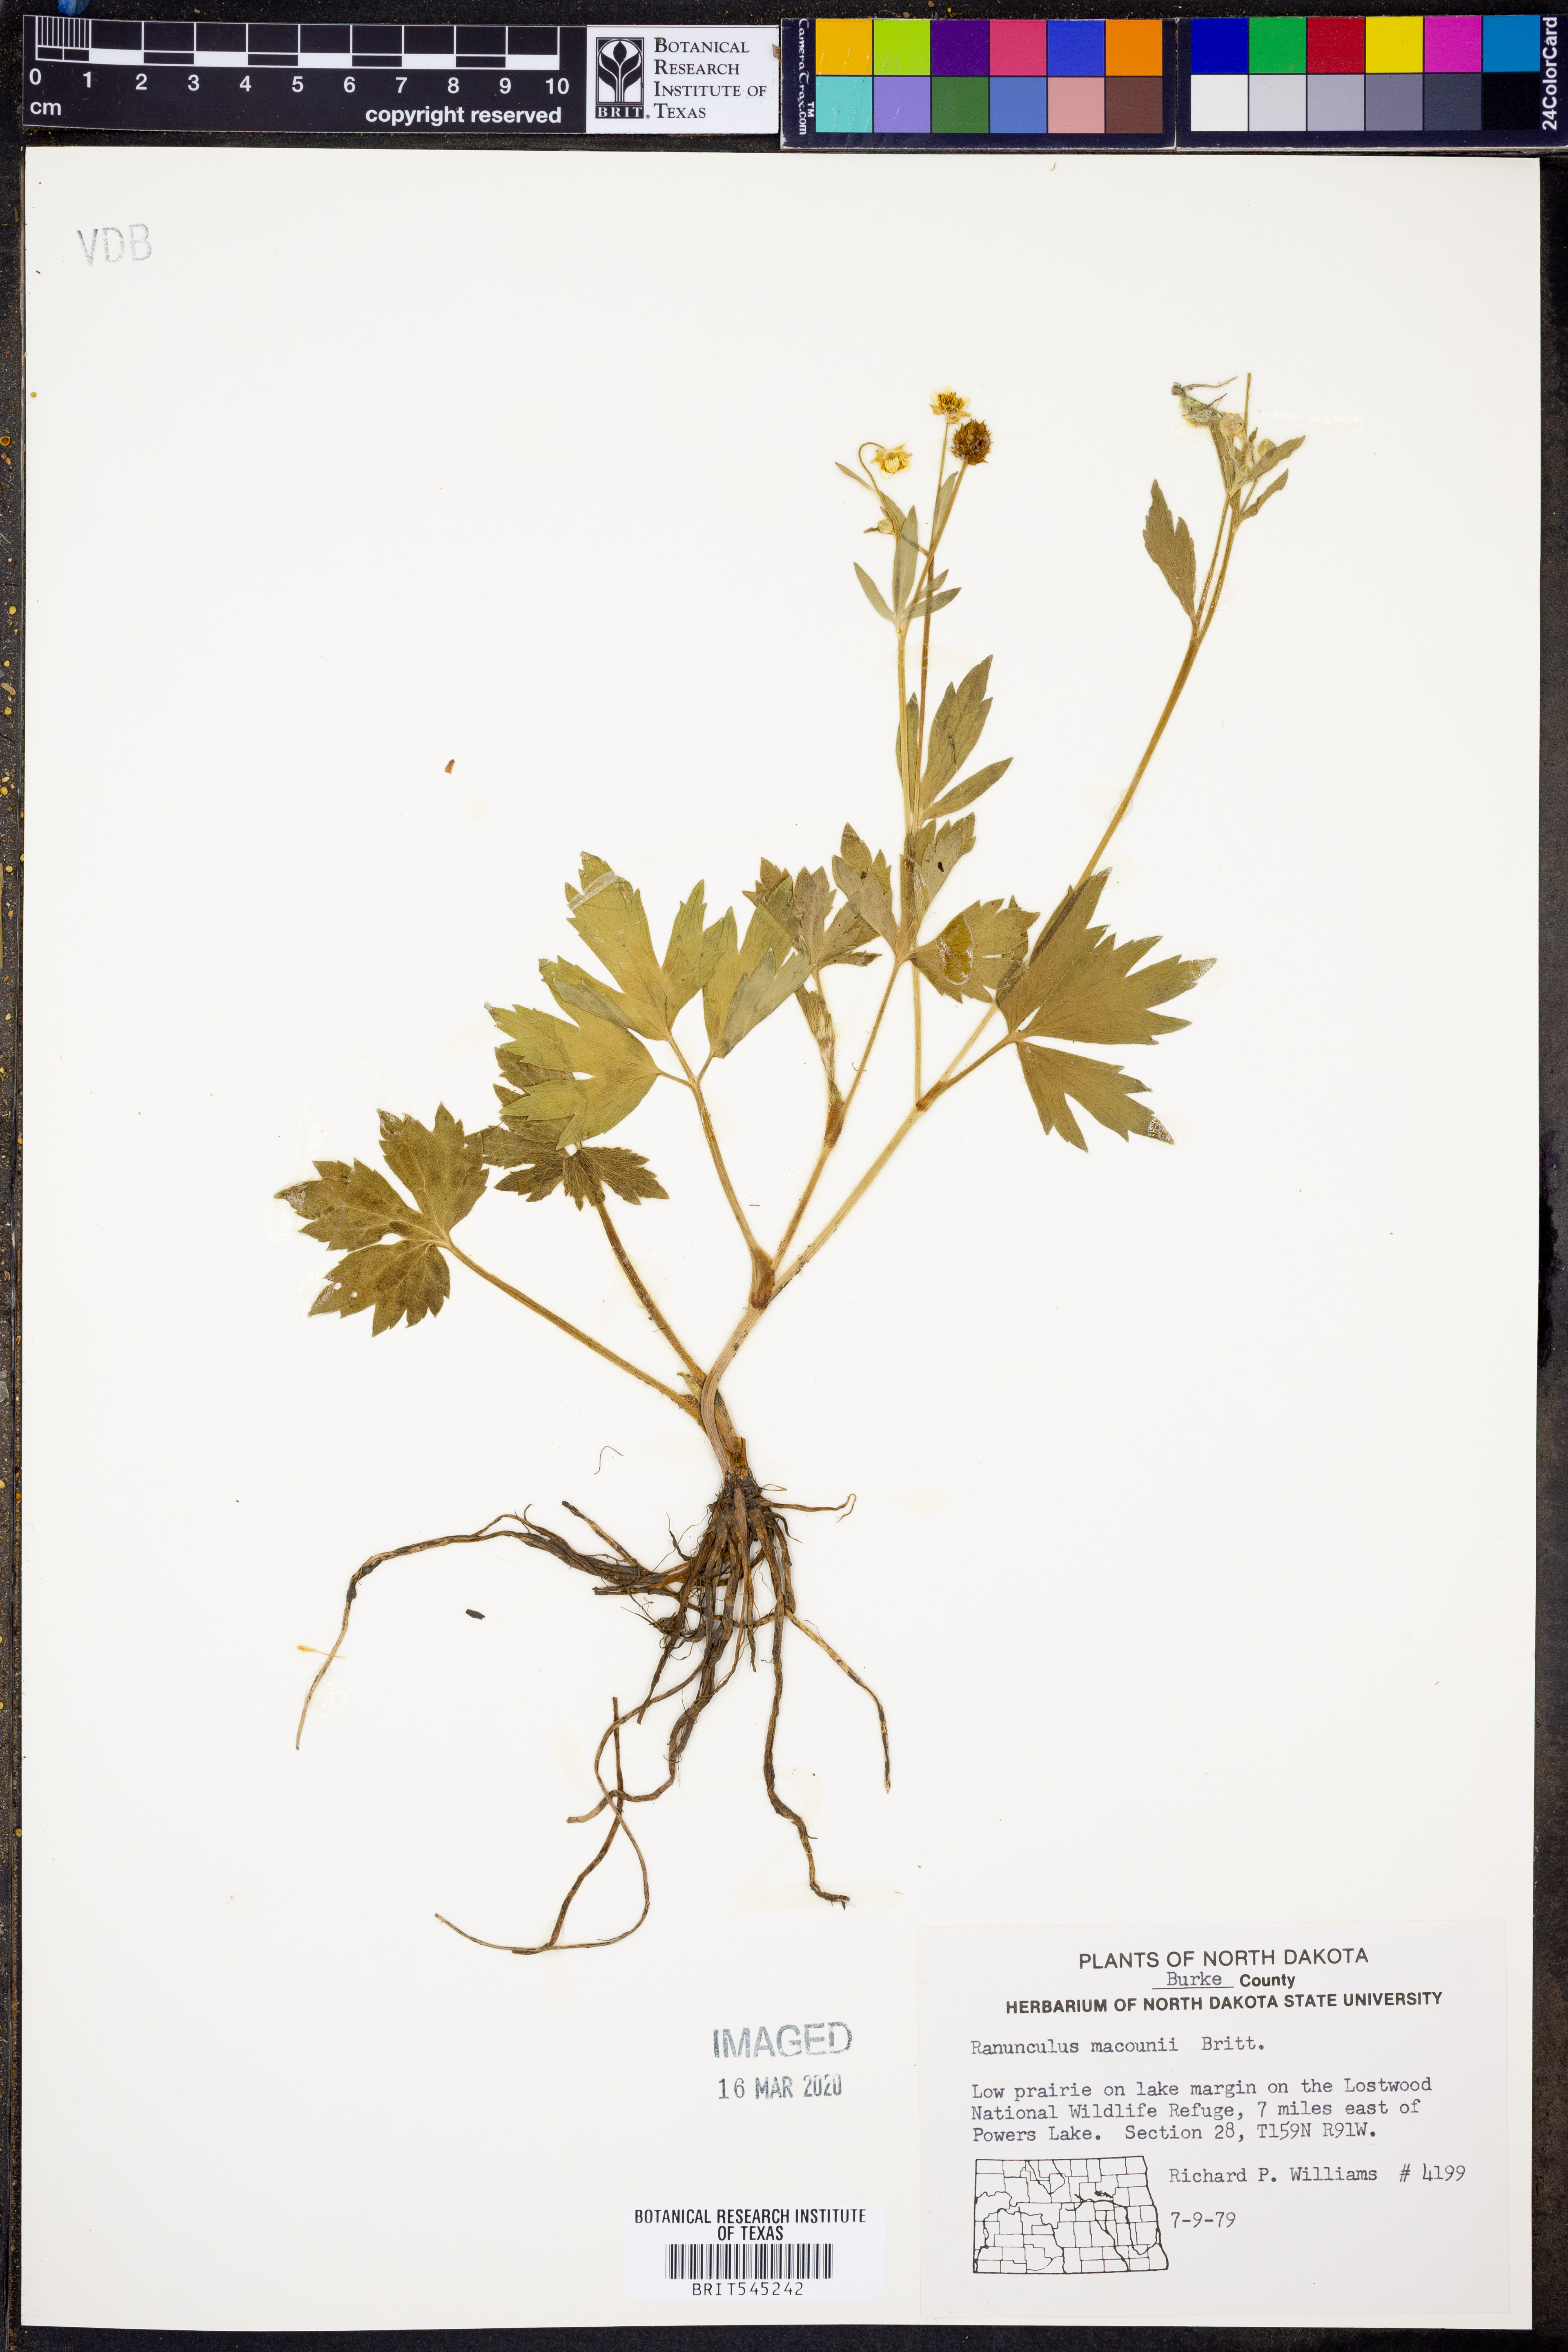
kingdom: Plantae
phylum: Tracheophyta
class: Magnoliopsida
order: Ranunculales
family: Ranunculaceae
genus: Ranunculus
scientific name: Ranunculus macounii
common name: Macoun's buttercup
